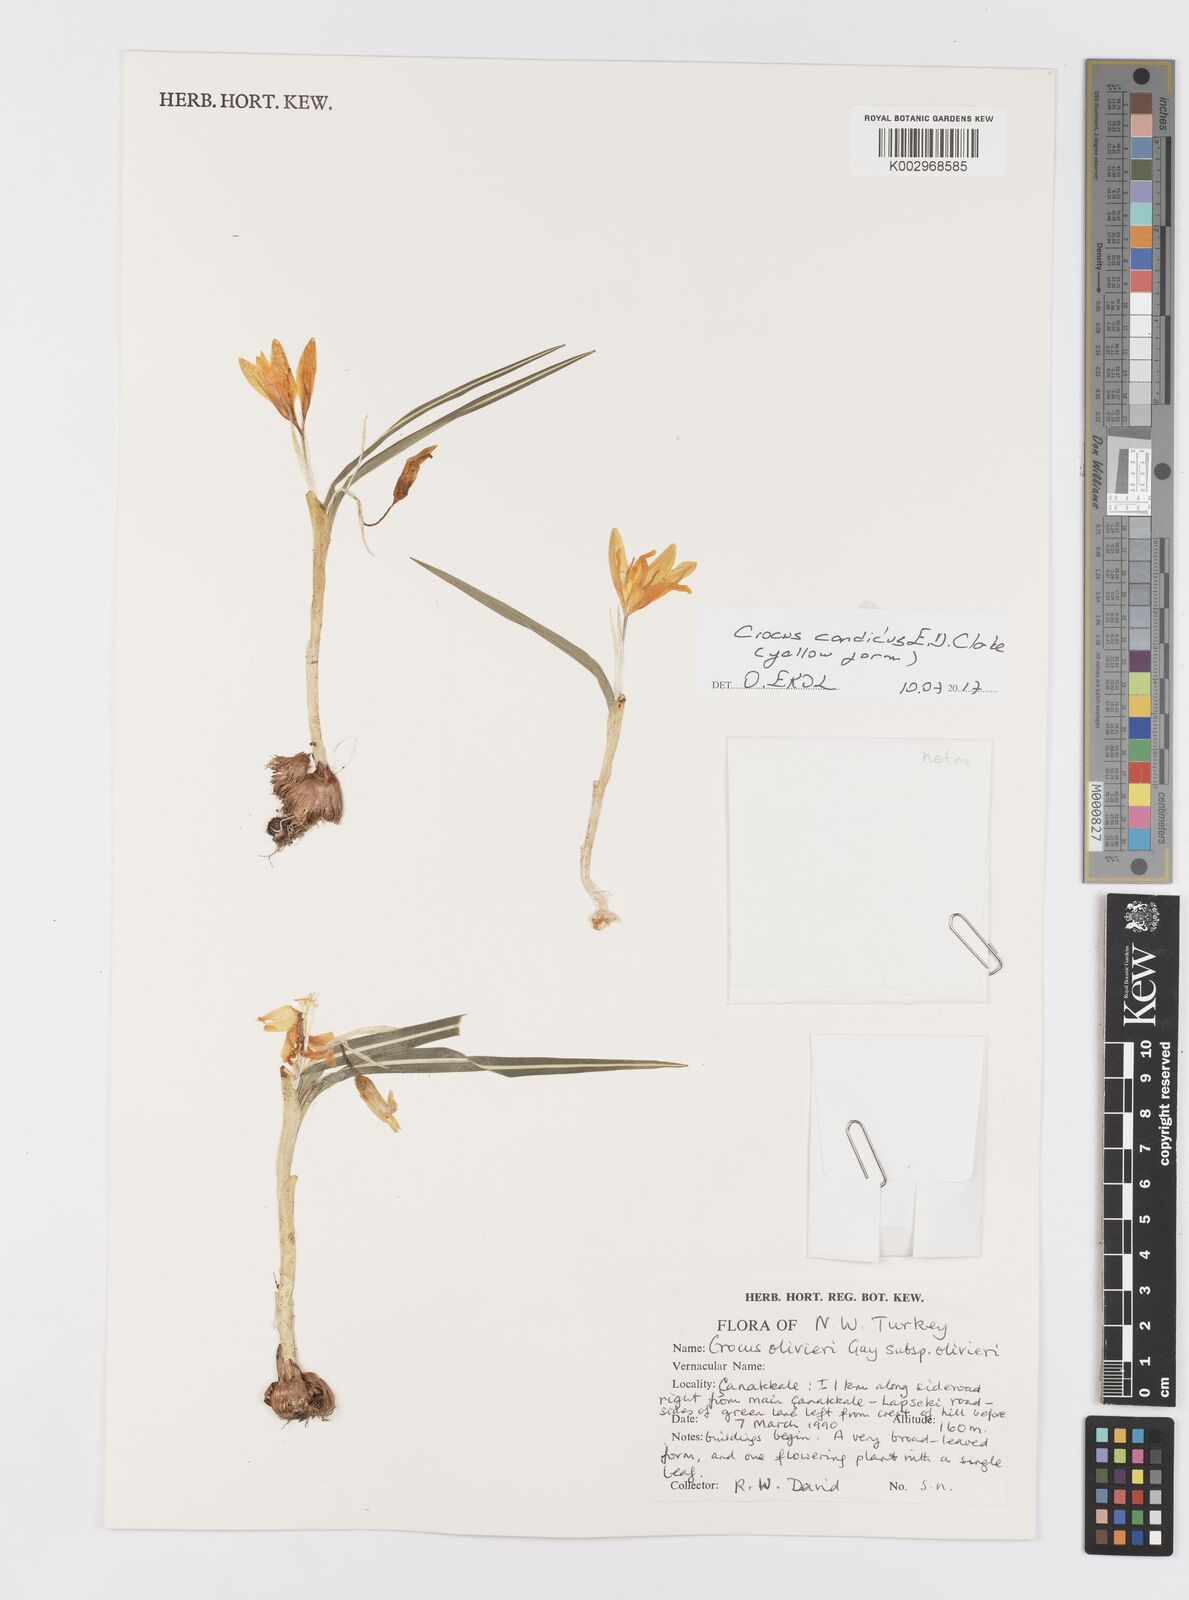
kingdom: Plantae
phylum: Tracheophyta
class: Liliopsida
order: Asparagales
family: Iridaceae
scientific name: Iridaceae
